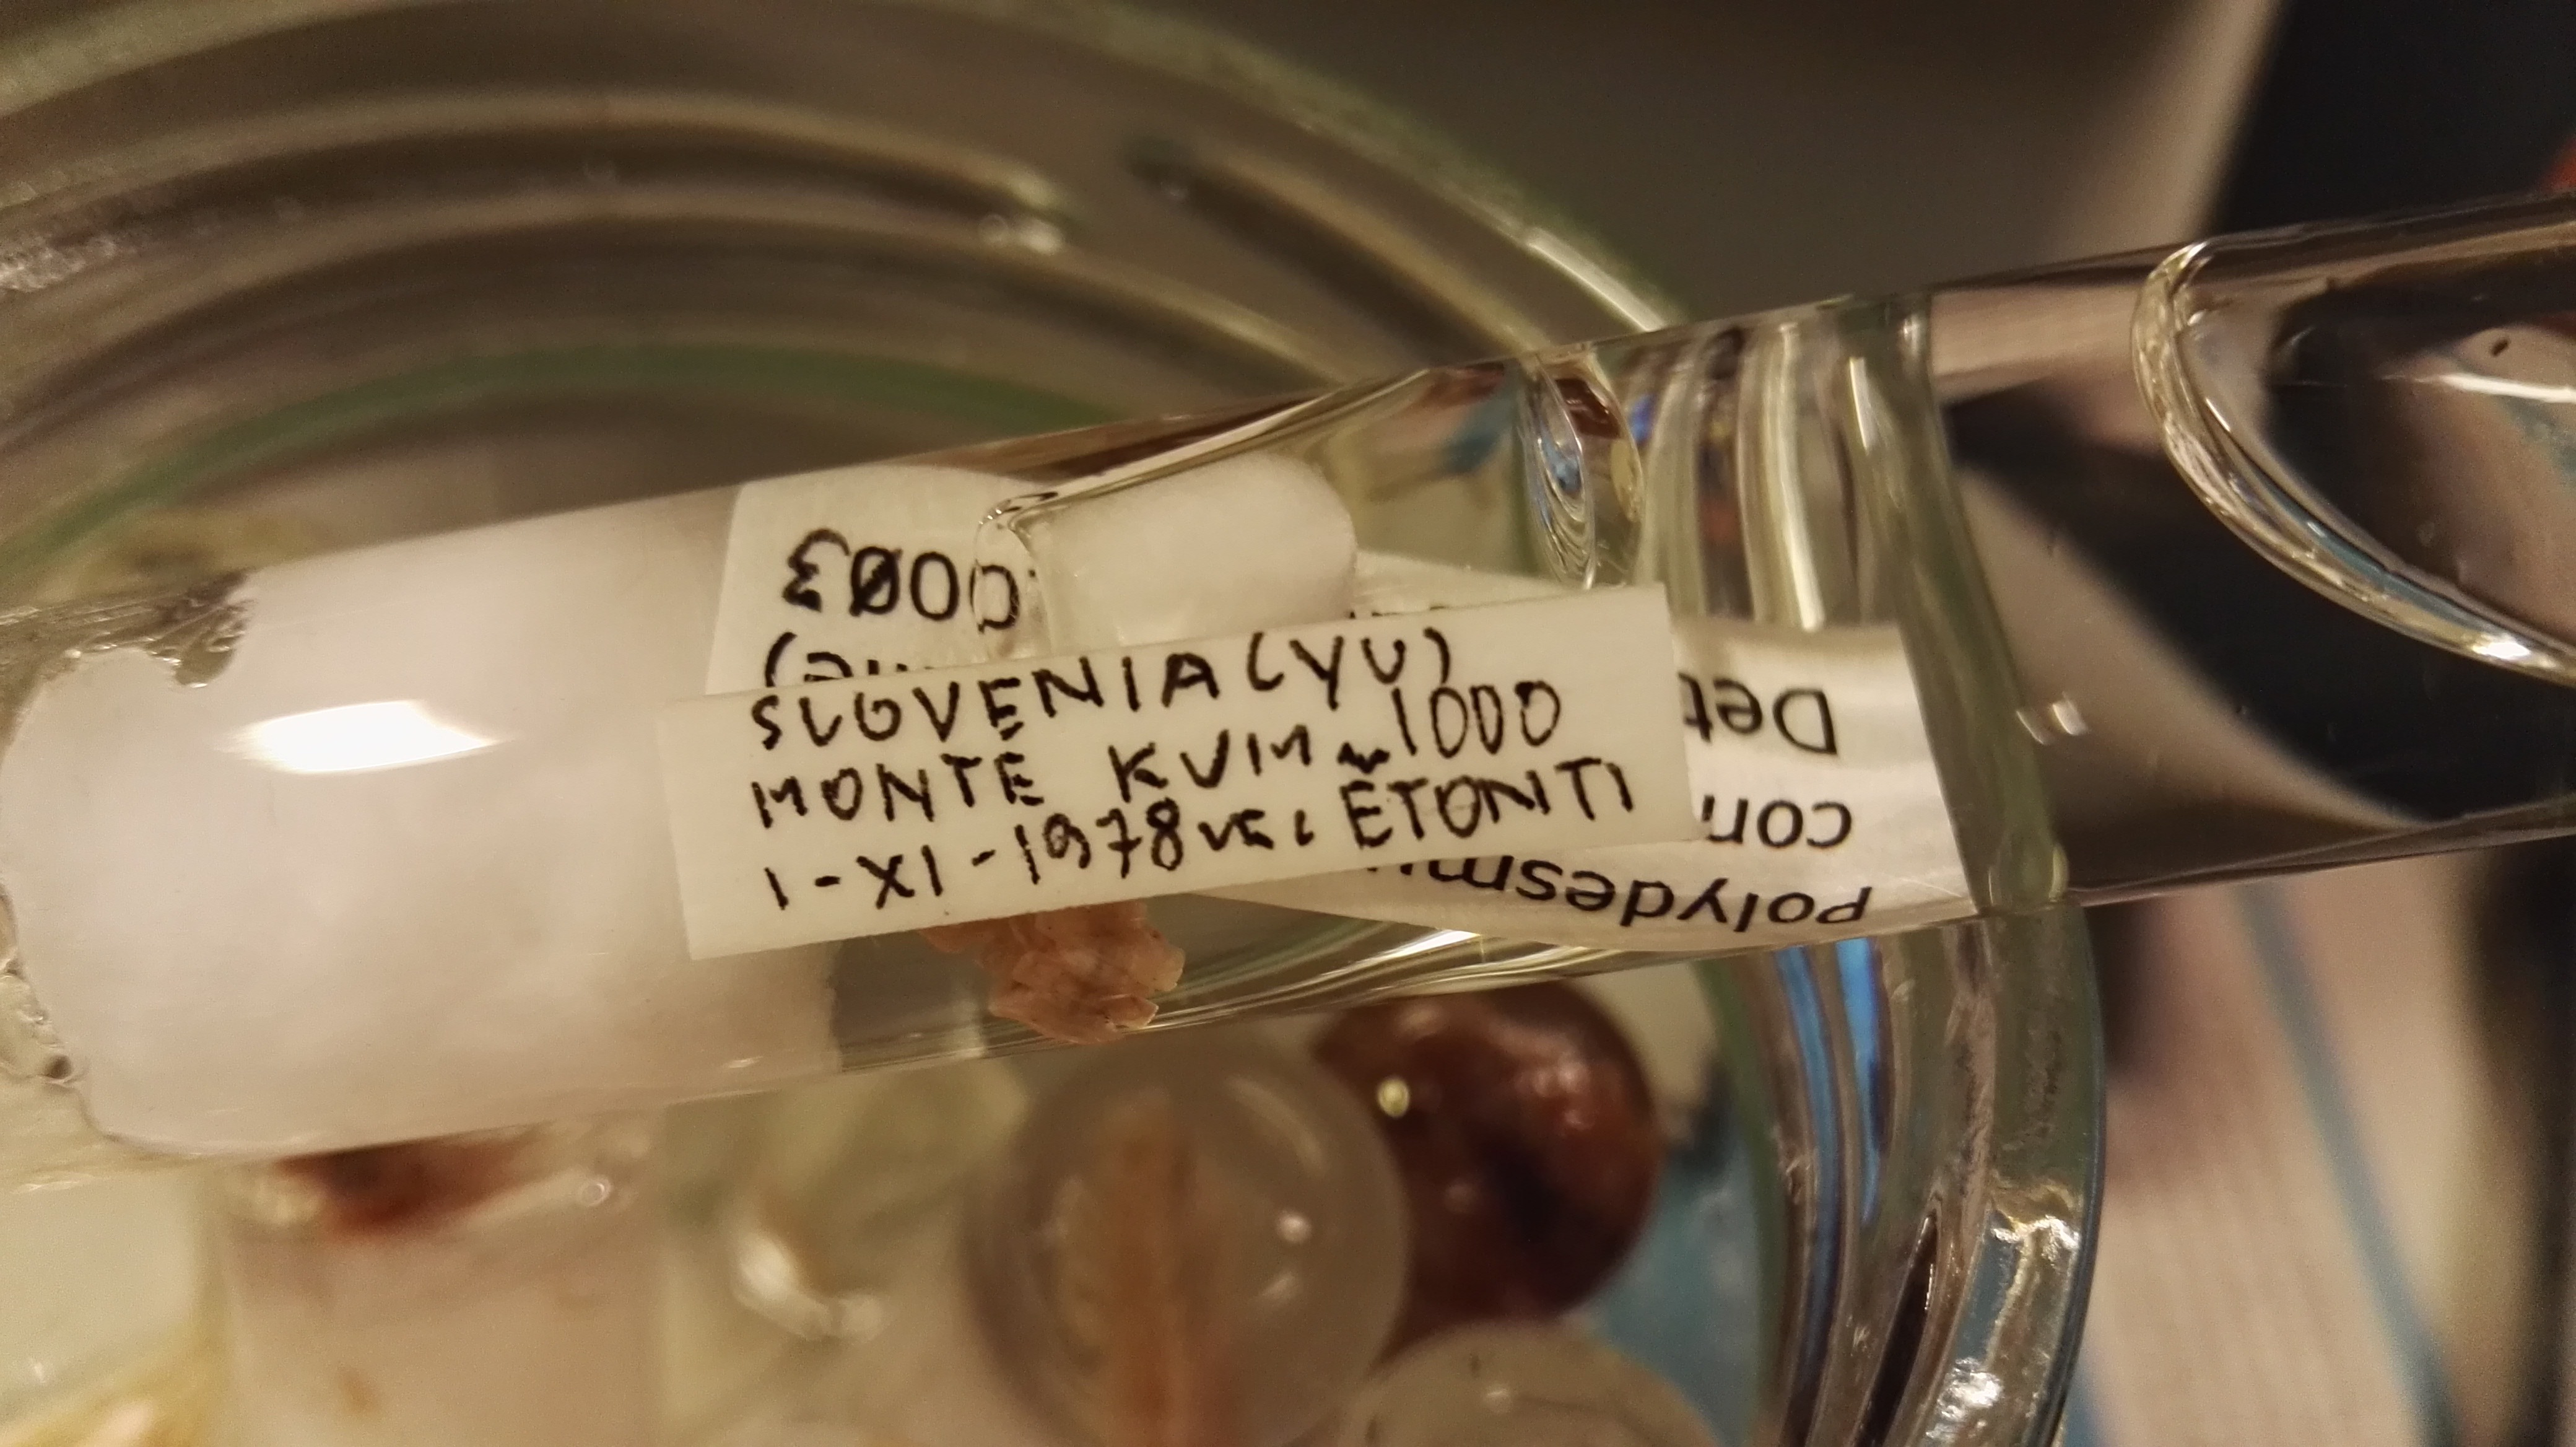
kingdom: Animalia
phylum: Arthropoda
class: Diplopoda
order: Polydesmida
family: Polydesmidae
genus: Polydesmus
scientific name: Polydesmus complanatus
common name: Flat-backed millipede
